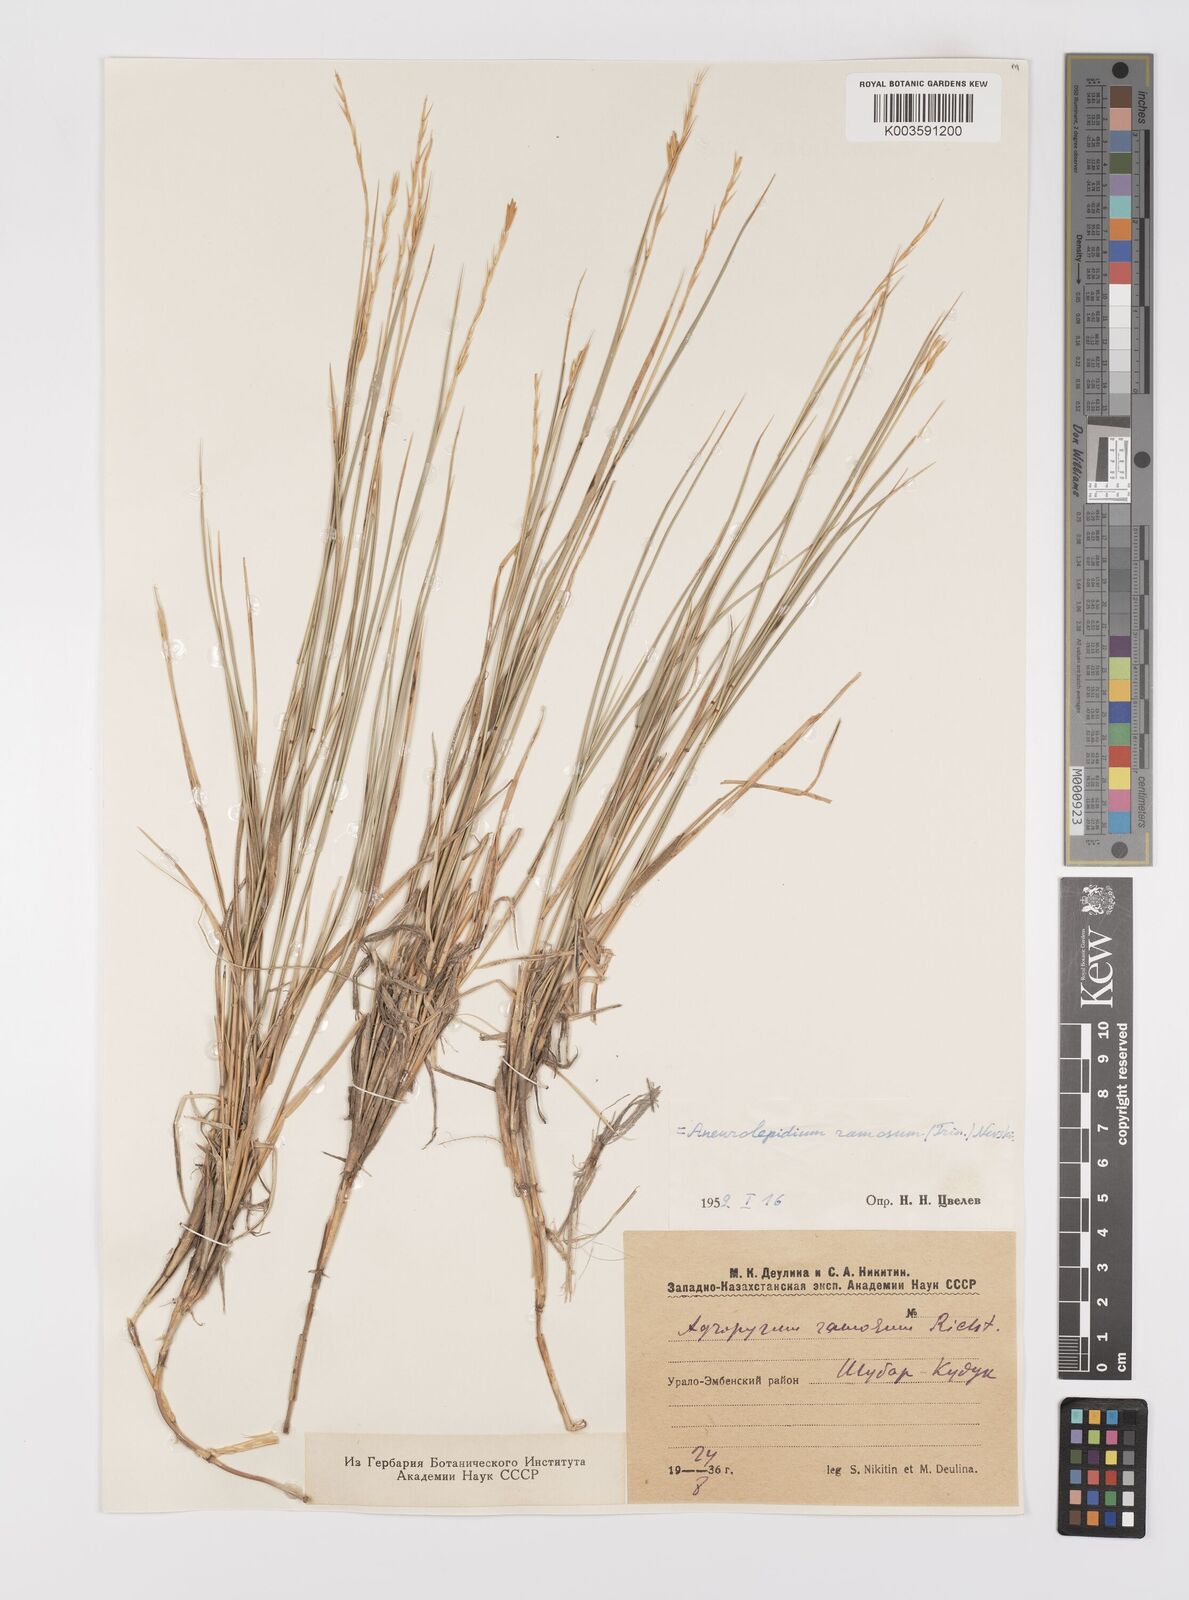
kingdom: Plantae
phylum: Tracheophyta
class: Liliopsida
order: Poales
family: Poaceae
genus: Leymus
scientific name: Leymus ramosus
